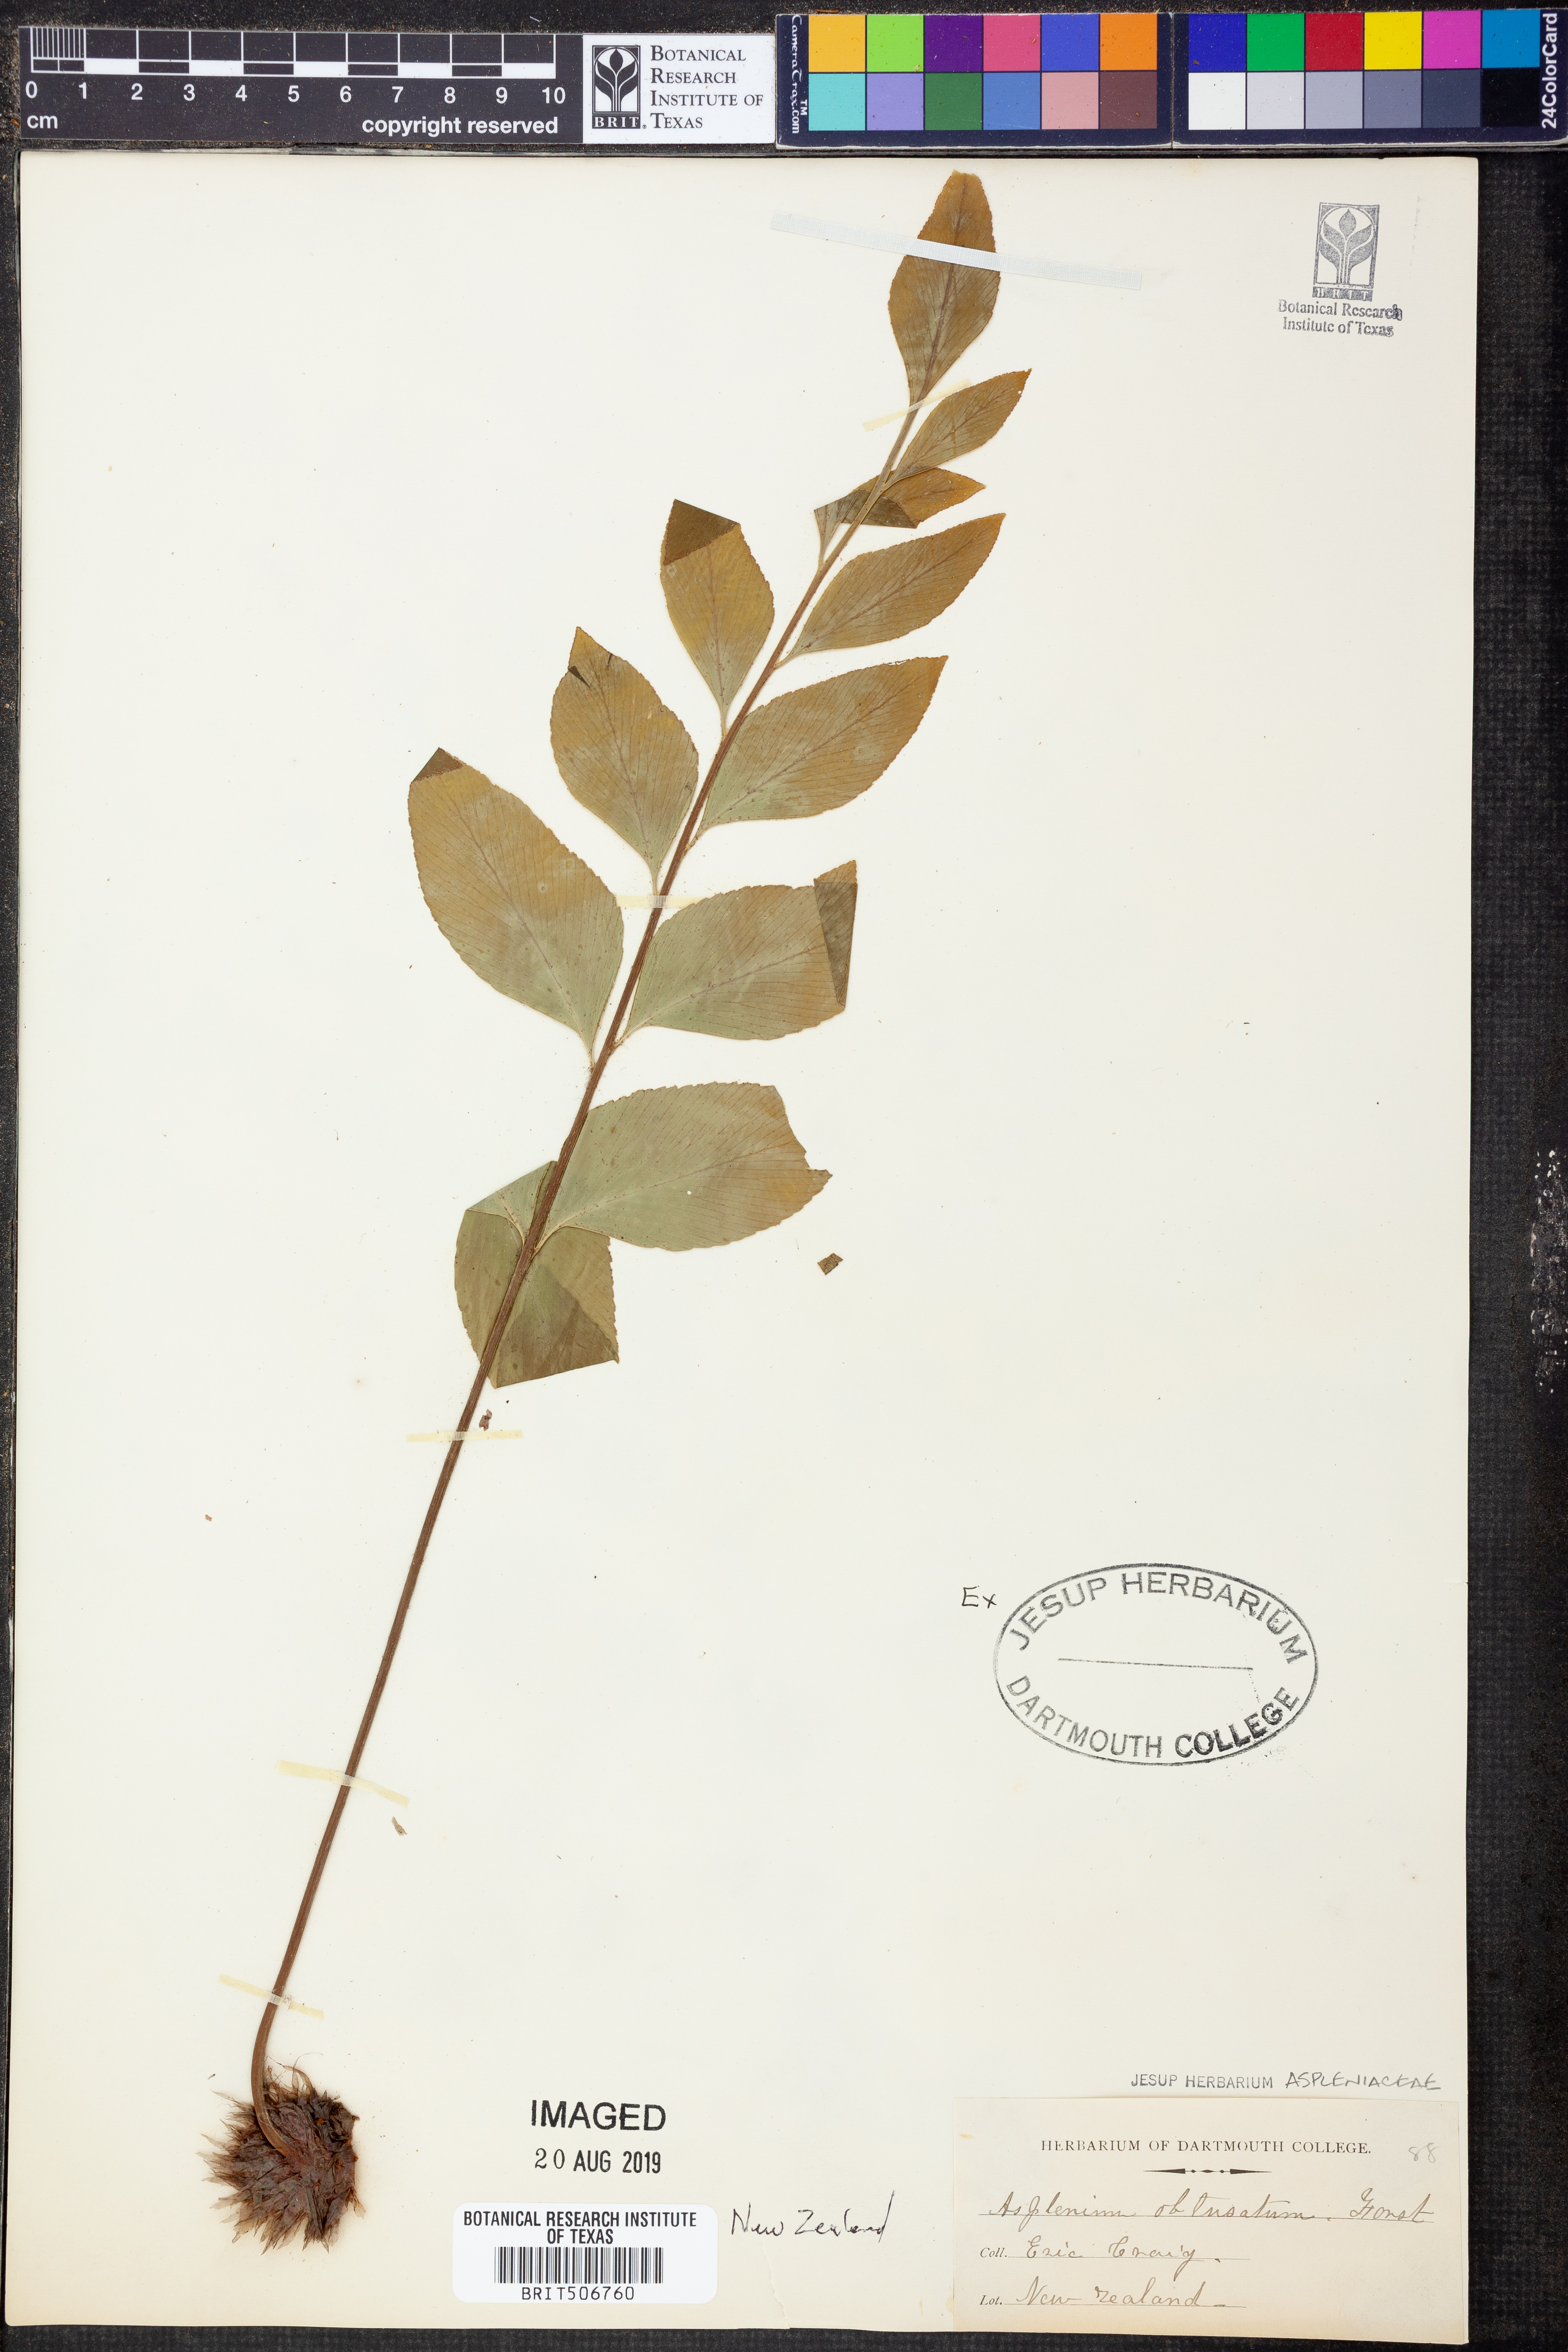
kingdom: Plantae
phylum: Tracheophyta
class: Polypodiopsida
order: Polypodiales
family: Aspleniaceae
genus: Asplenium
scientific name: Asplenium obtusatum
